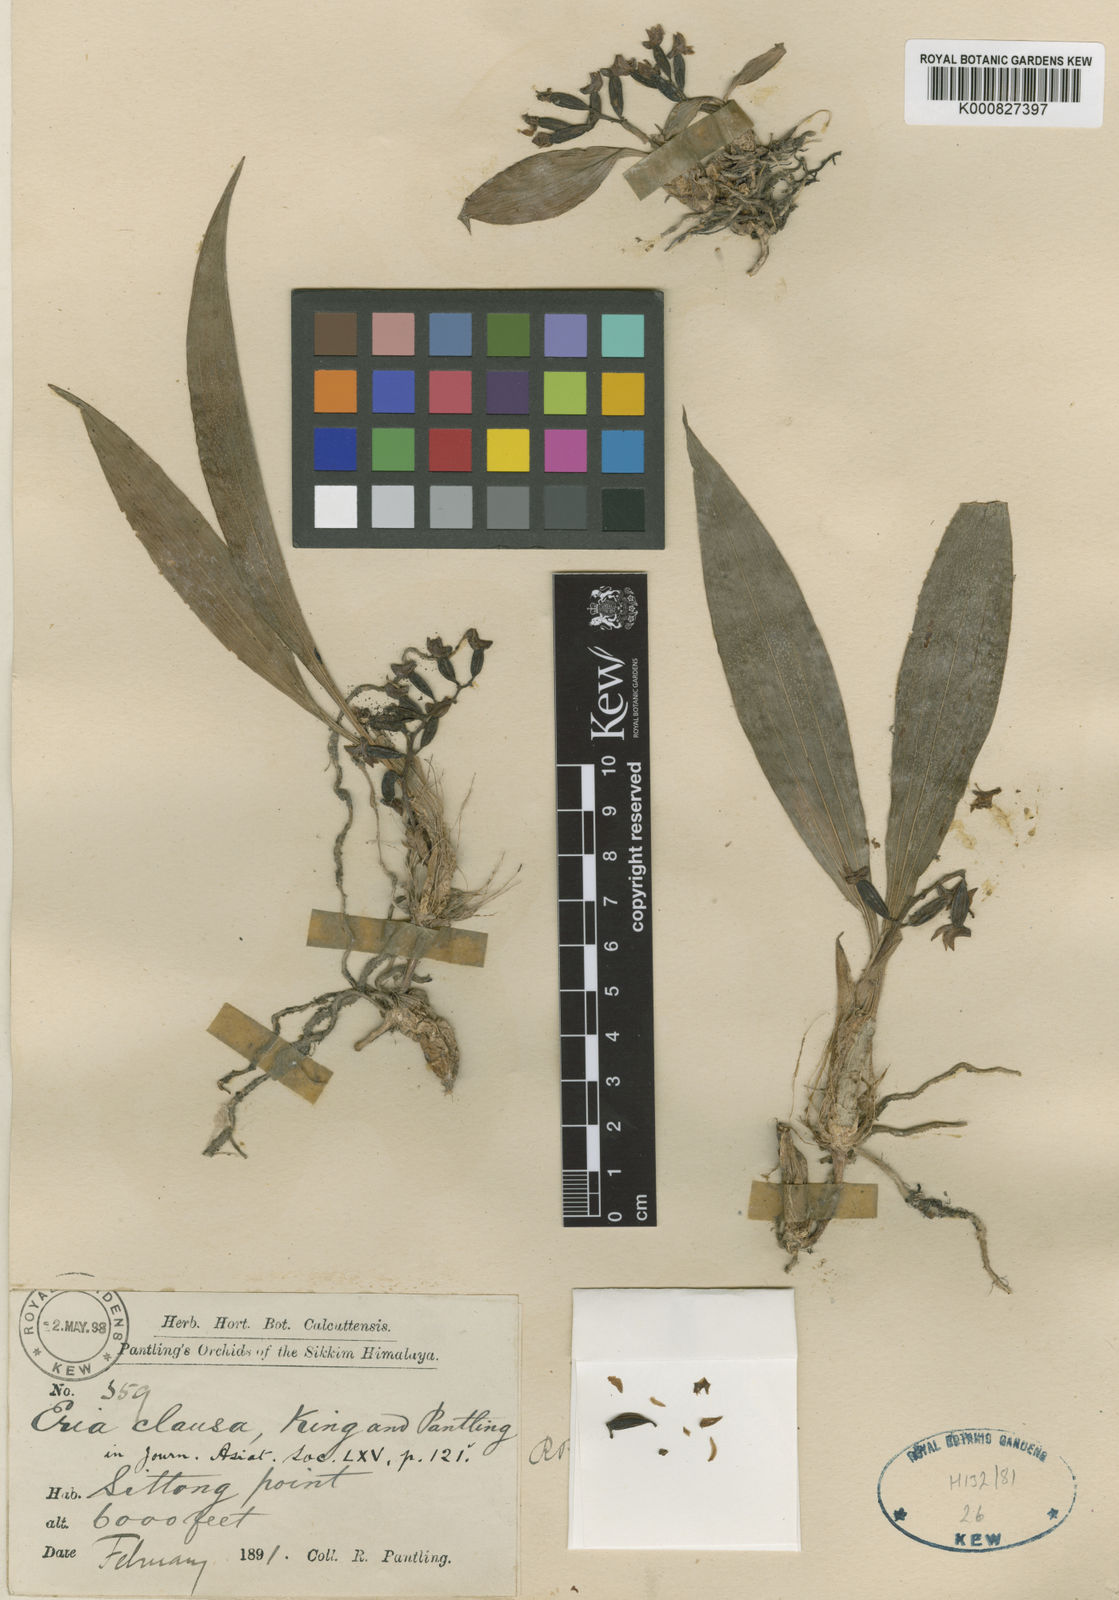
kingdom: Plantae
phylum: Tracheophyta
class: Liliopsida
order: Asparagales
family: Orchidaceae
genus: Eria
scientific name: Eria clausa
